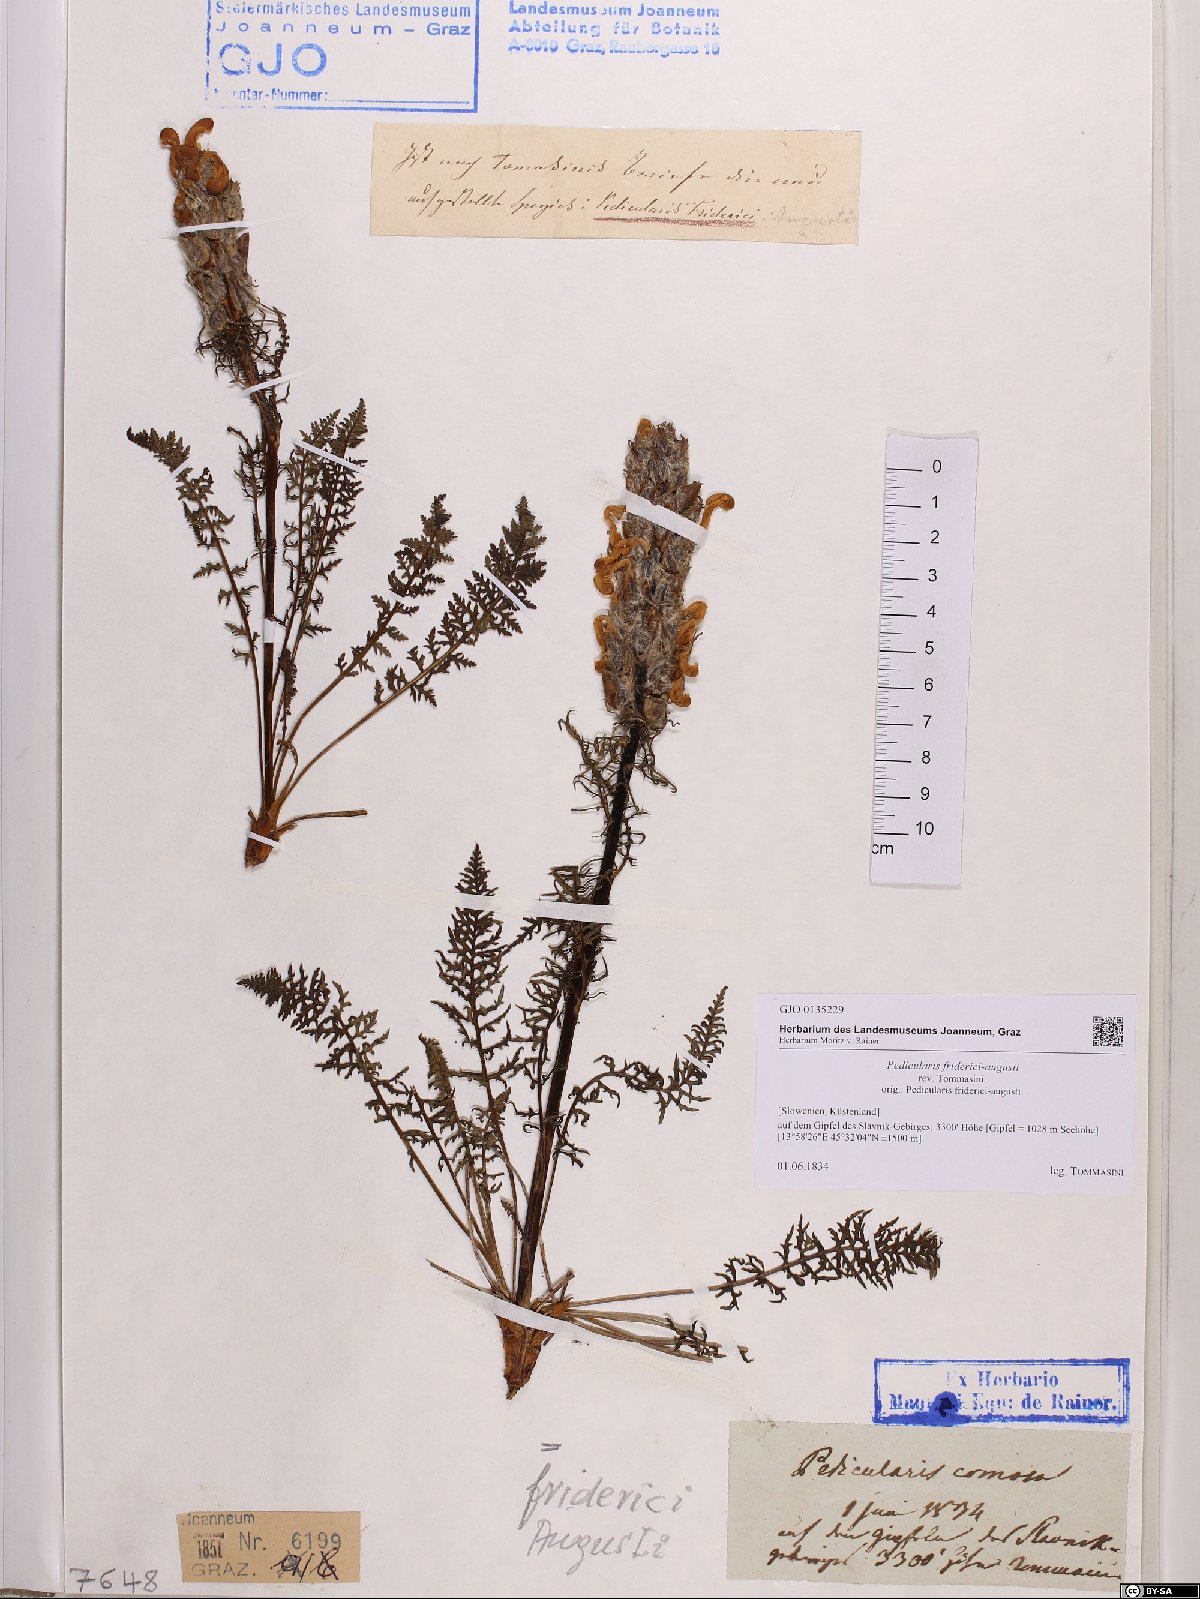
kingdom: Plantae
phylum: Tracheophyta
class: Magnoliopsida
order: Lamiales
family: Orobanchaceae
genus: Pedicularis
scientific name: Pedicularis friderici-augusti
